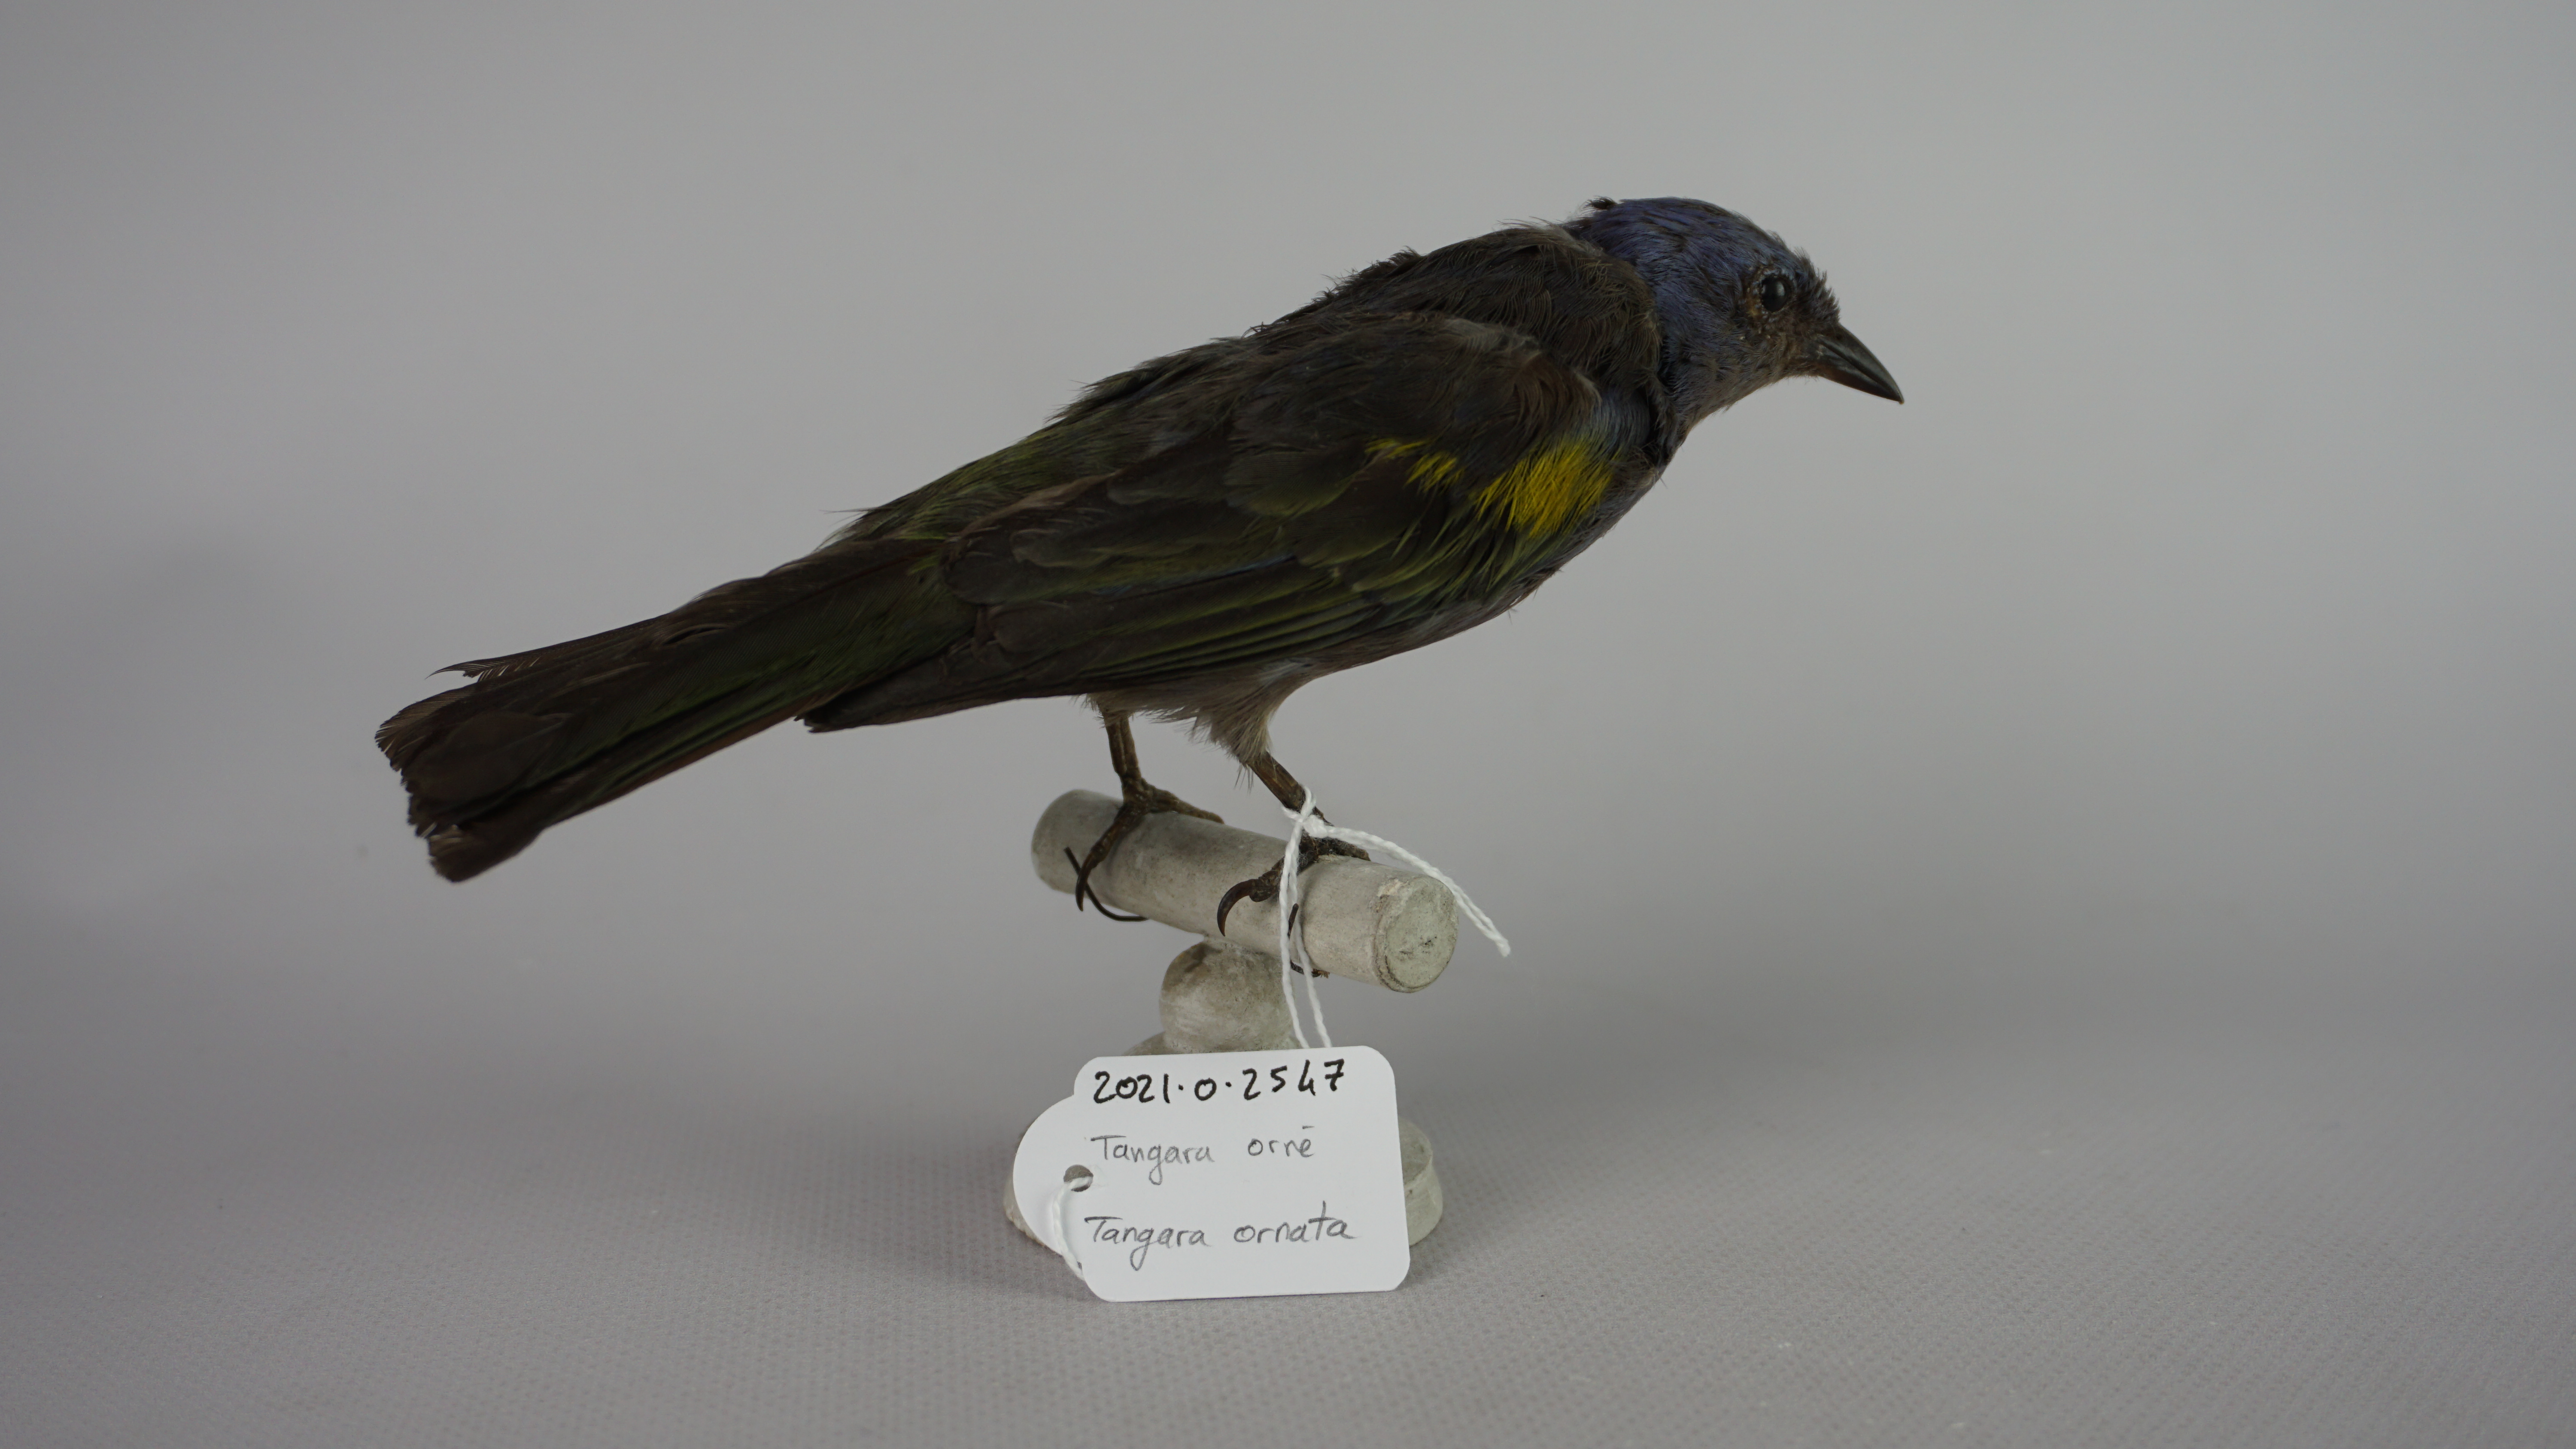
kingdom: Animalia
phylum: Chordata
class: Aves
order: Passeriformes
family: Thraupidae
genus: Thraupis
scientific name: Thraupis ornata
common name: Golden-chevroned tanager
